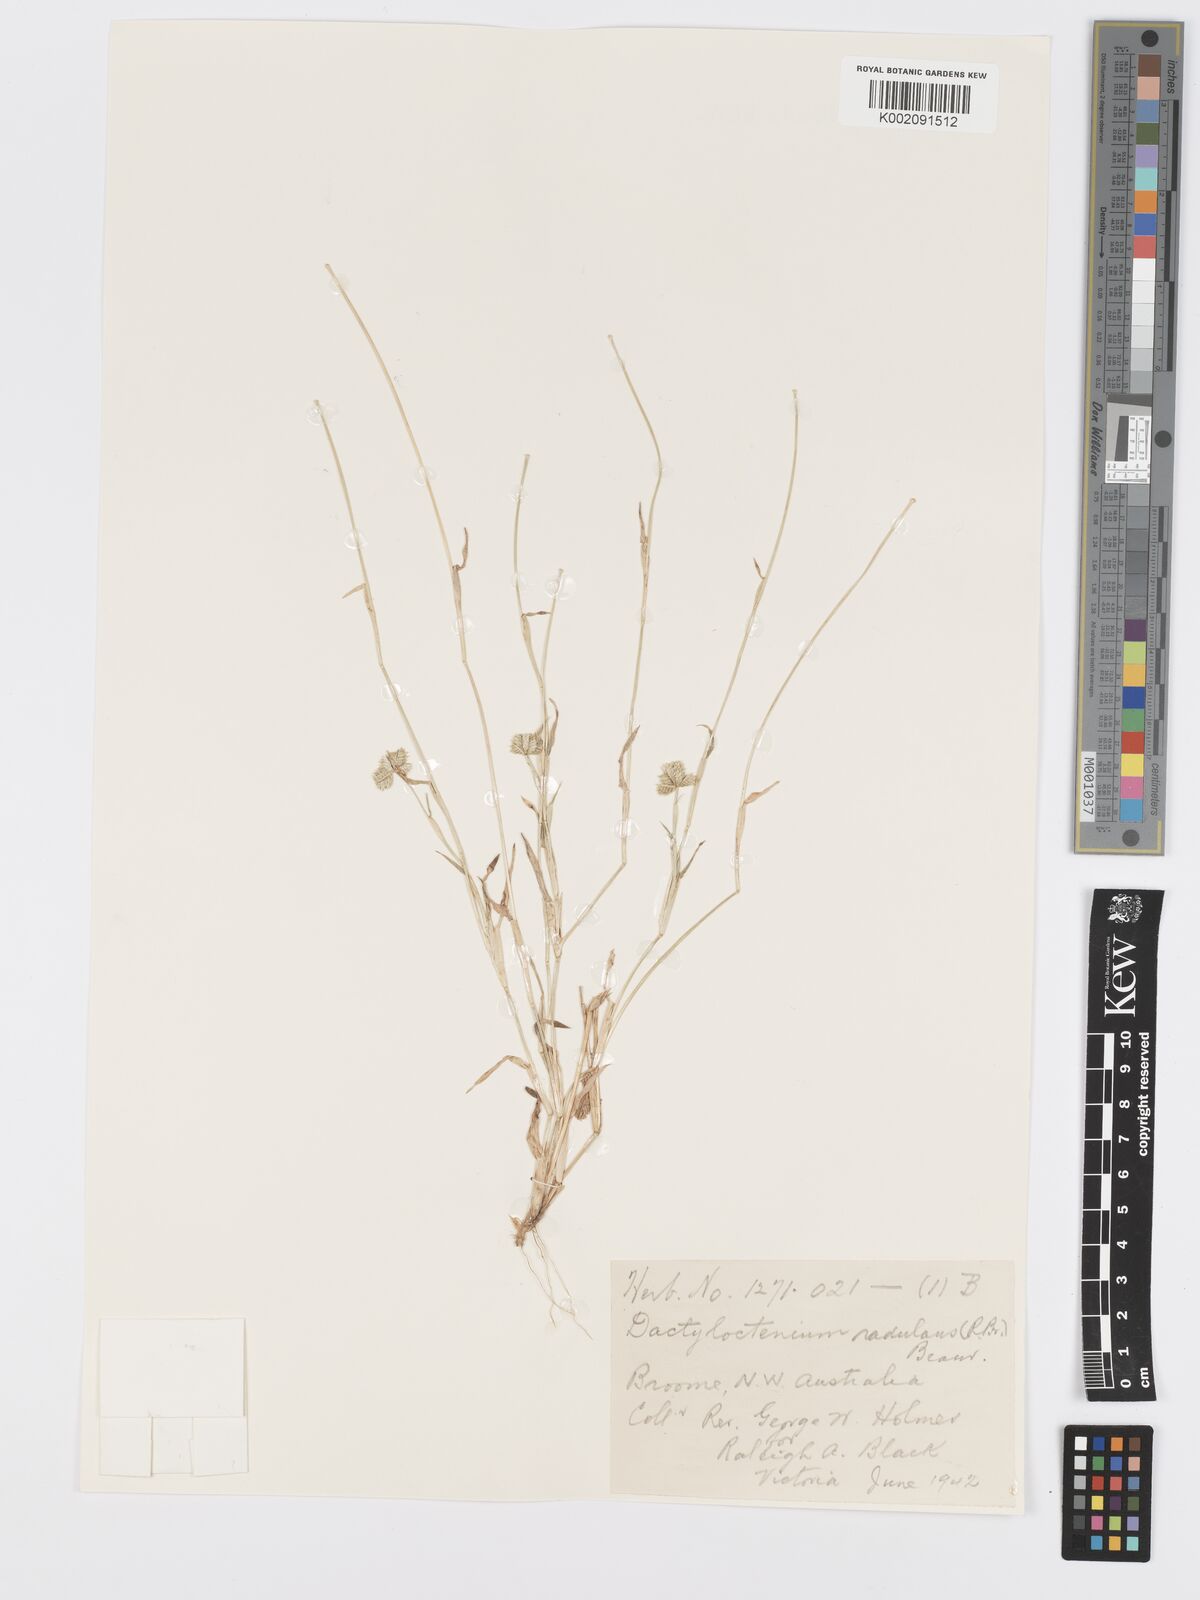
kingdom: Plantae
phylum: Tracheophyta
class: Liliopsida
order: Poales
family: Poaceae
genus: Dactyloctenium
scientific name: Dactyloctenium radulans
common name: Button-grass
